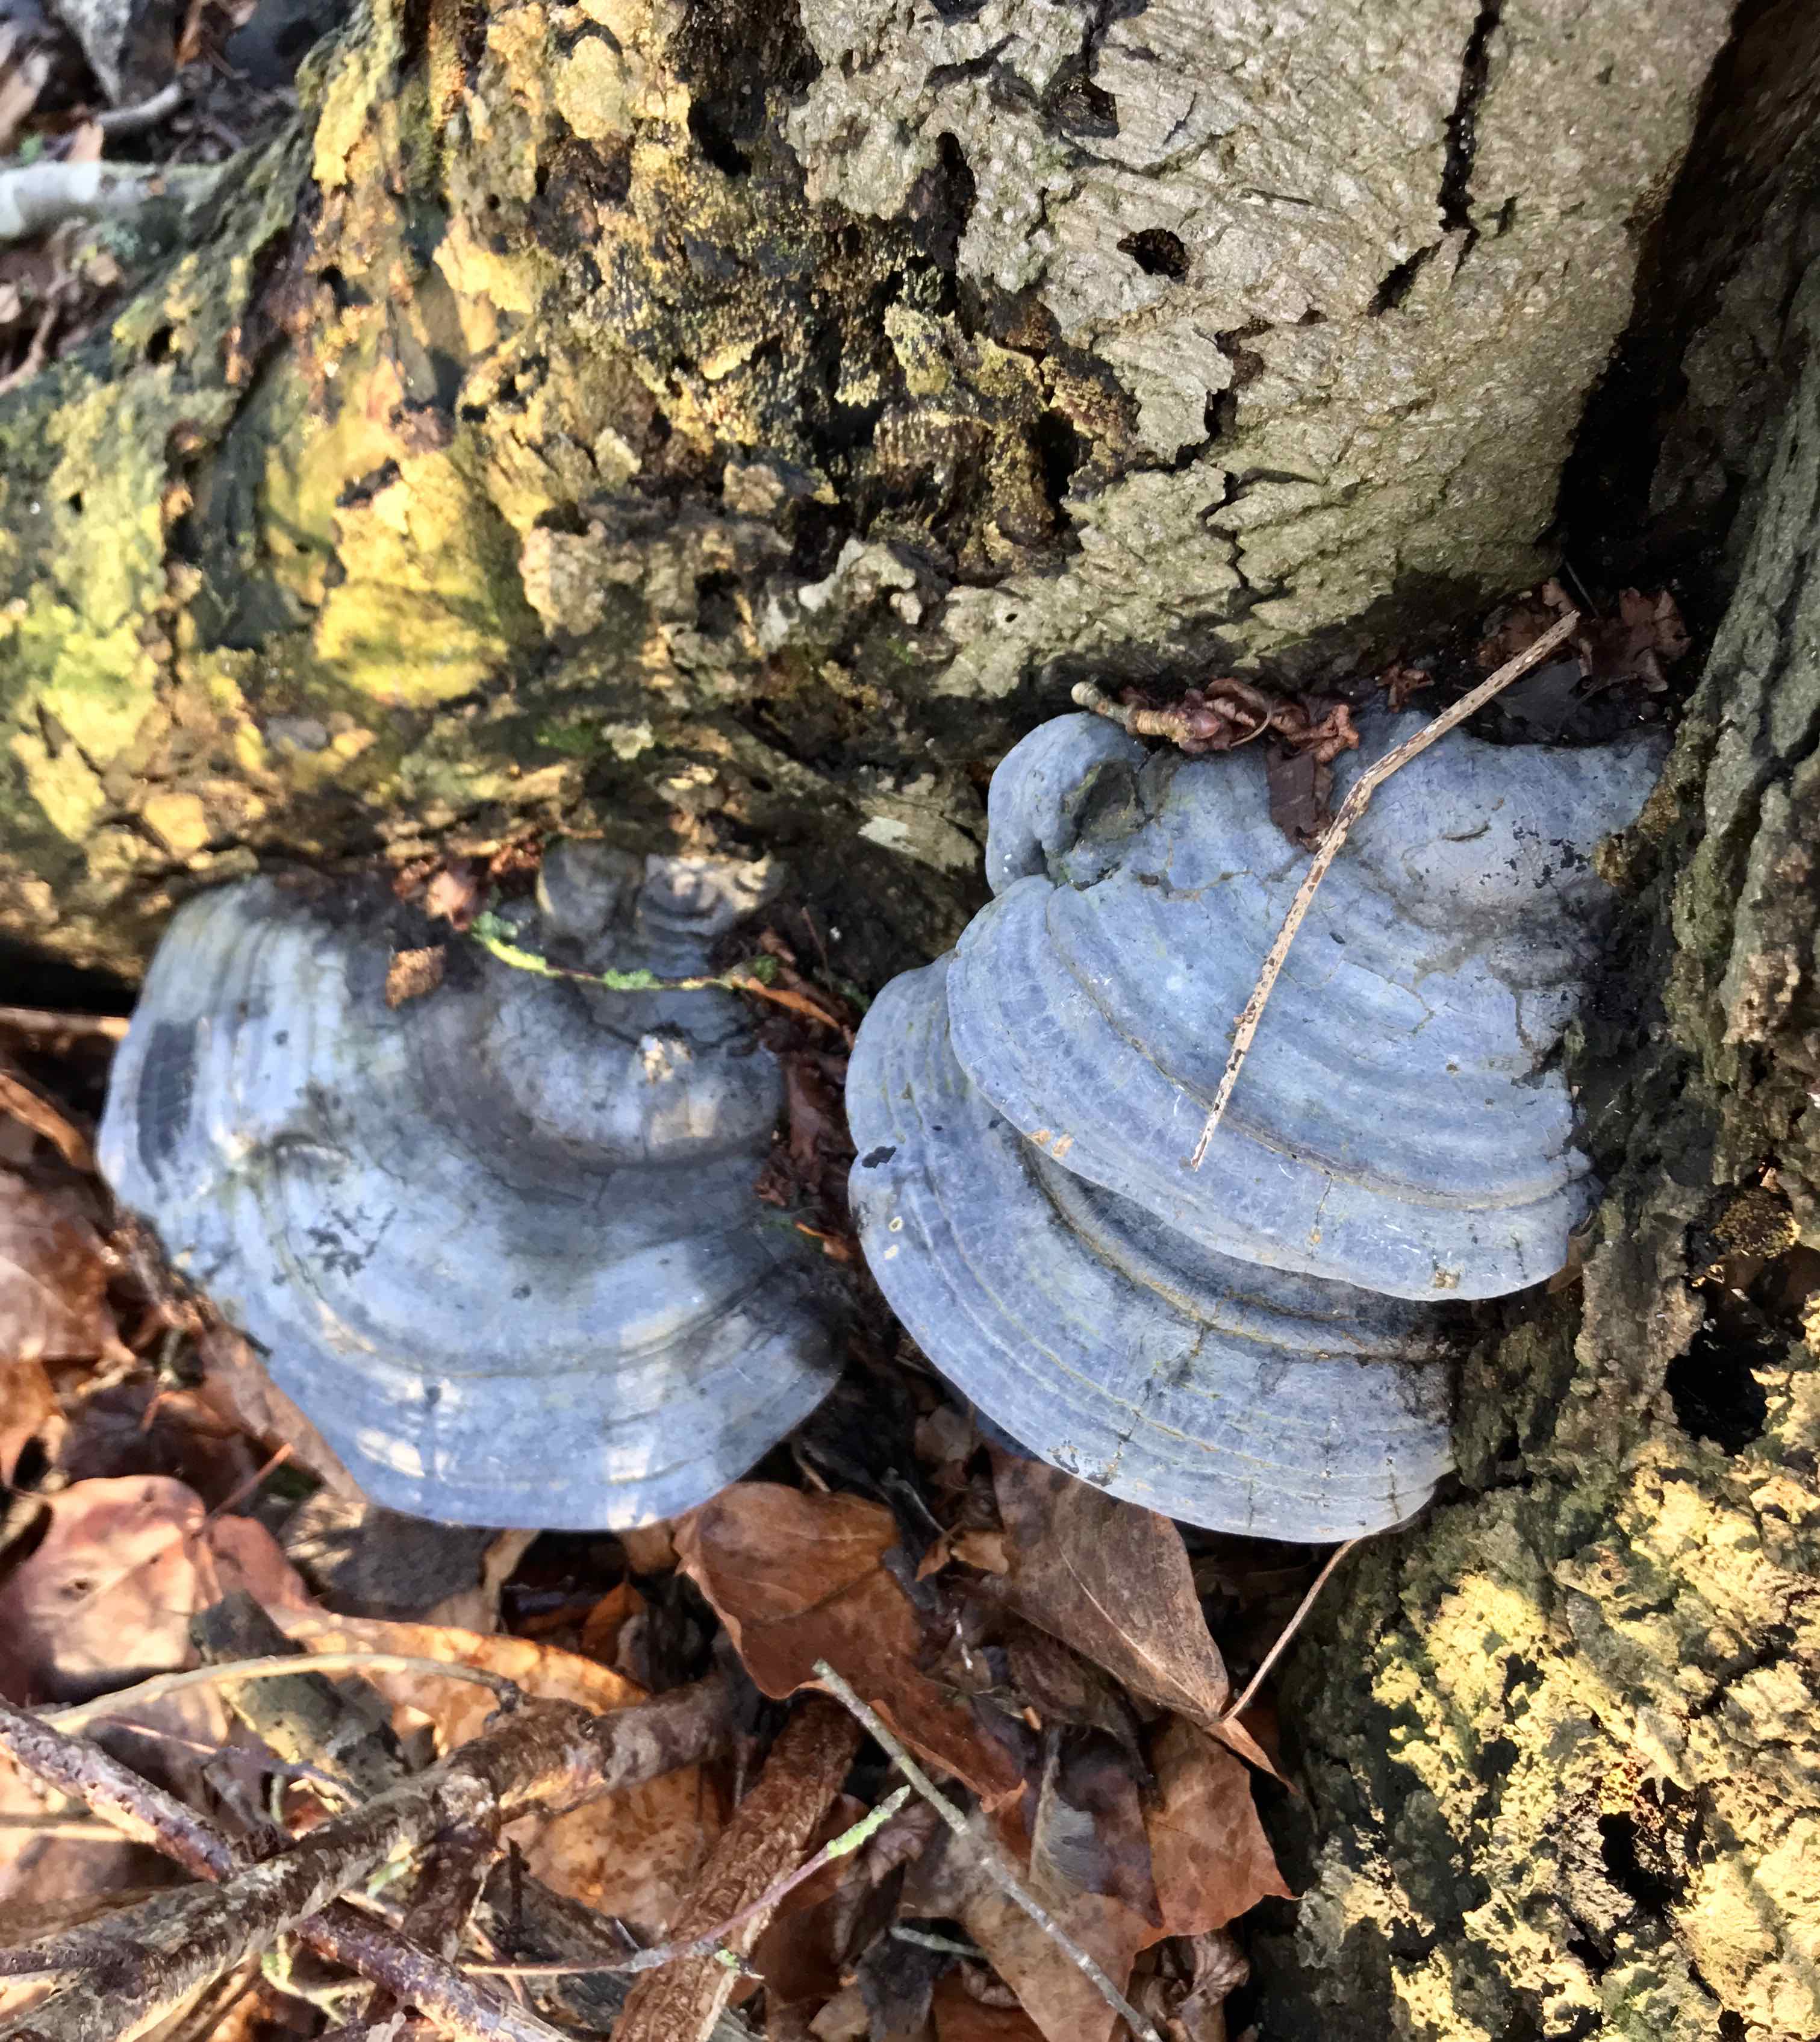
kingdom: Fungi
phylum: Basidiomycota
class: Agaricomycetes
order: Polyporales
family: Polyporaceae
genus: Ganoderma
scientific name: Ganoderma pfeifferi
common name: kobberrød lakporesvamp
